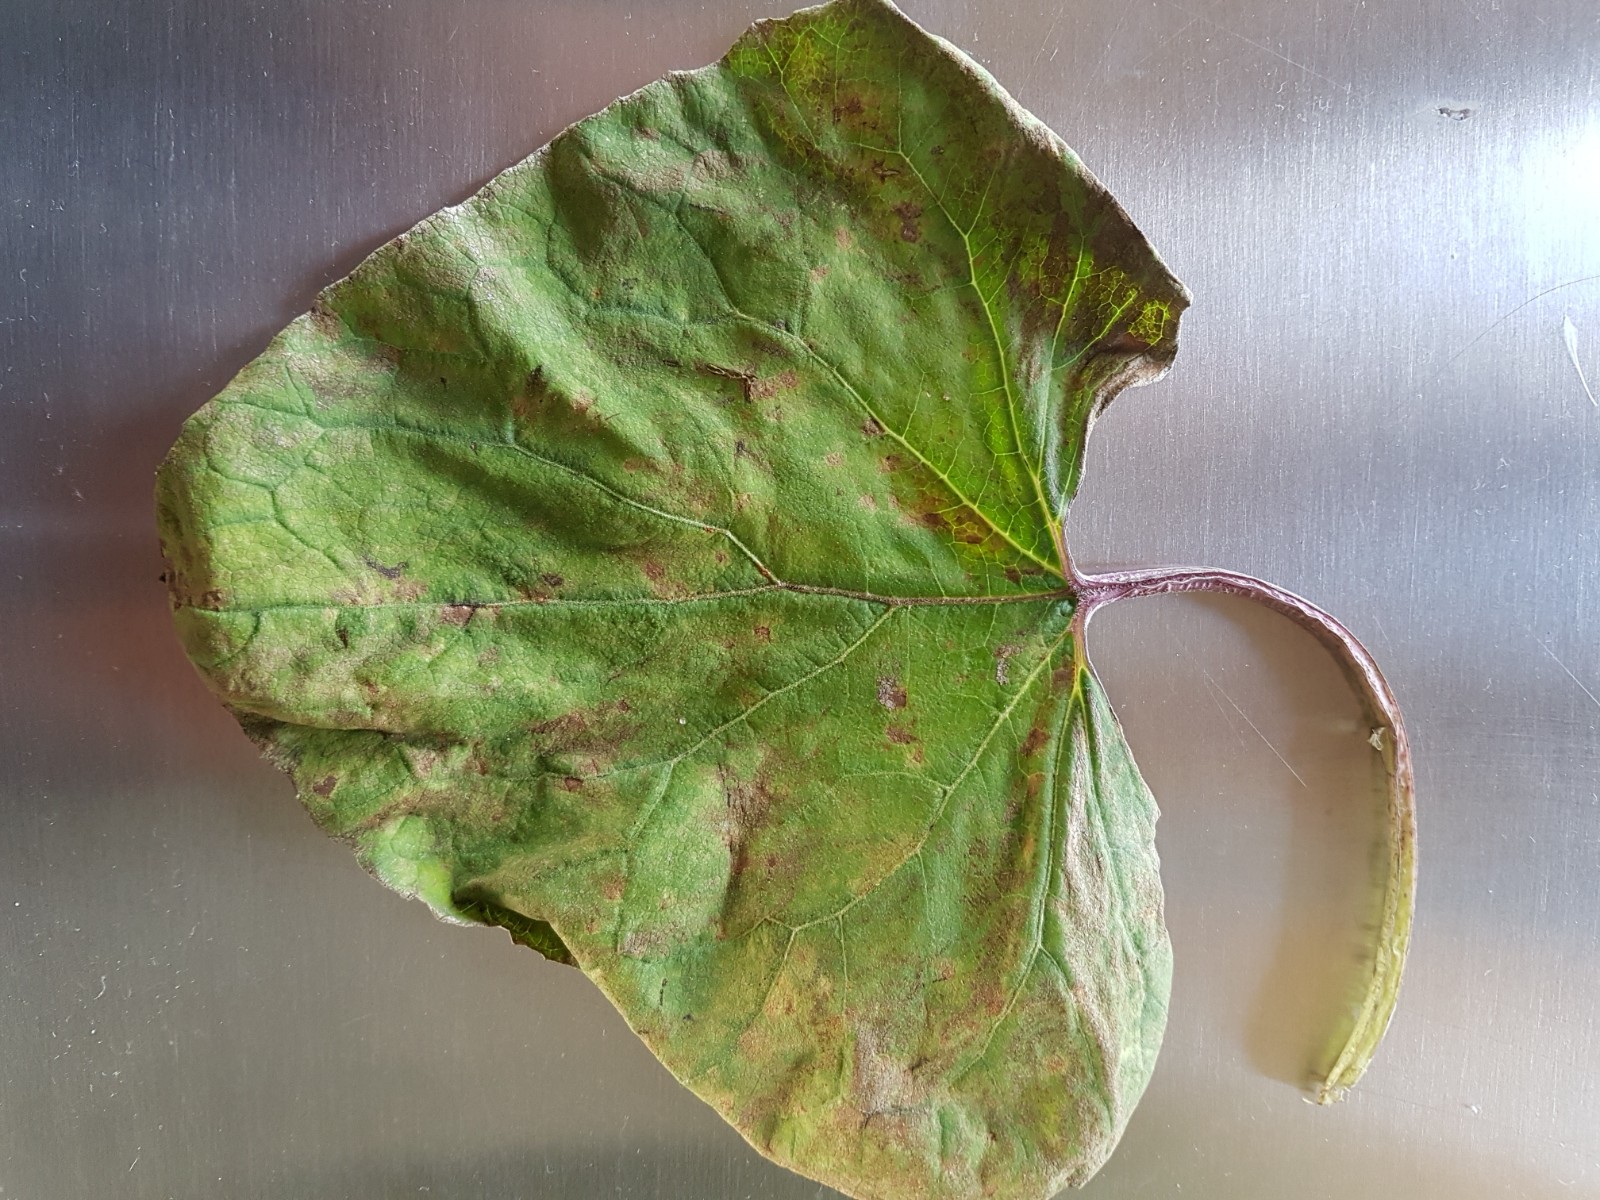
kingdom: Fungi
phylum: Basidiomycota
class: Pucciniomycetes
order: Pucciniales
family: Coleosporiaceae
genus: Coleosporium
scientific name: Coleosporium tussilaginis
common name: almindelig fyrrenålerust
